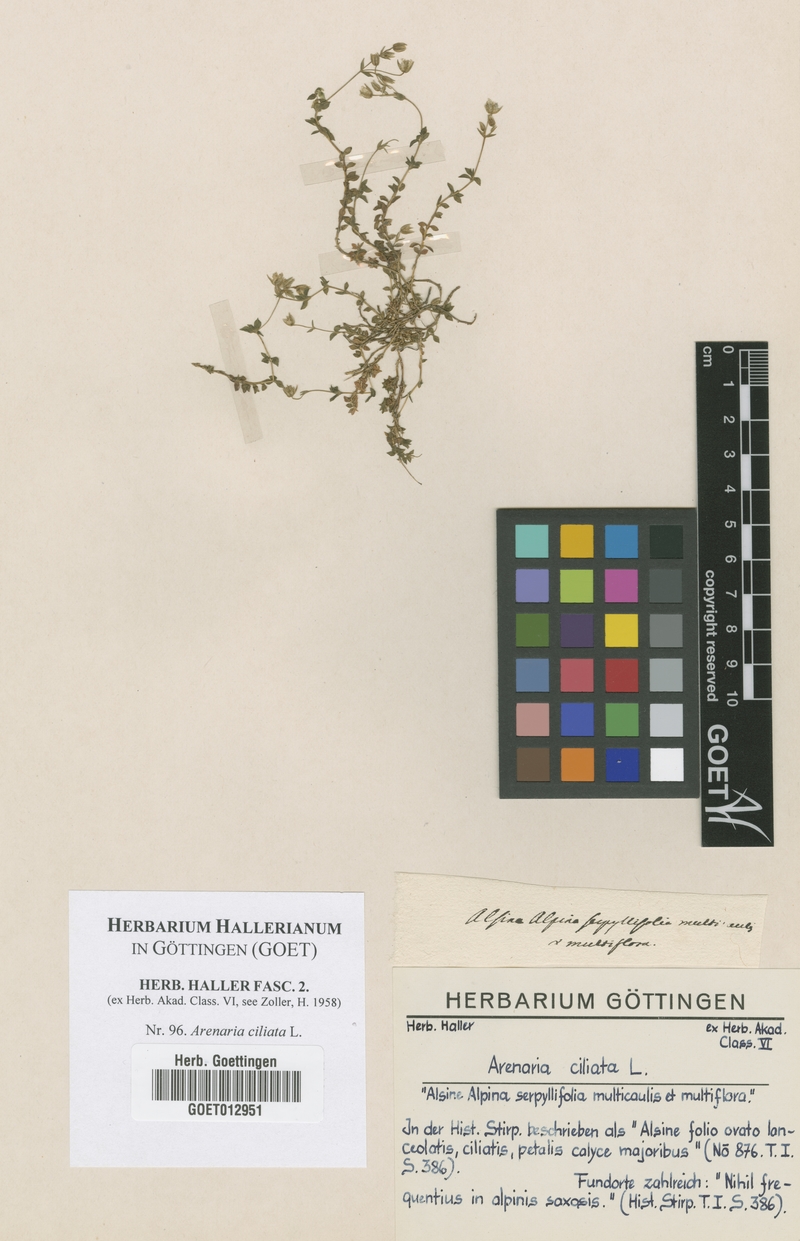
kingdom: Plantae
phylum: Tracheophyta
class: Magnoliopsida
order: Caryophyllales
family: Caryophyllaceae
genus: Arenaria
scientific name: Arenaria ciliata
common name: Fringed sandwort
